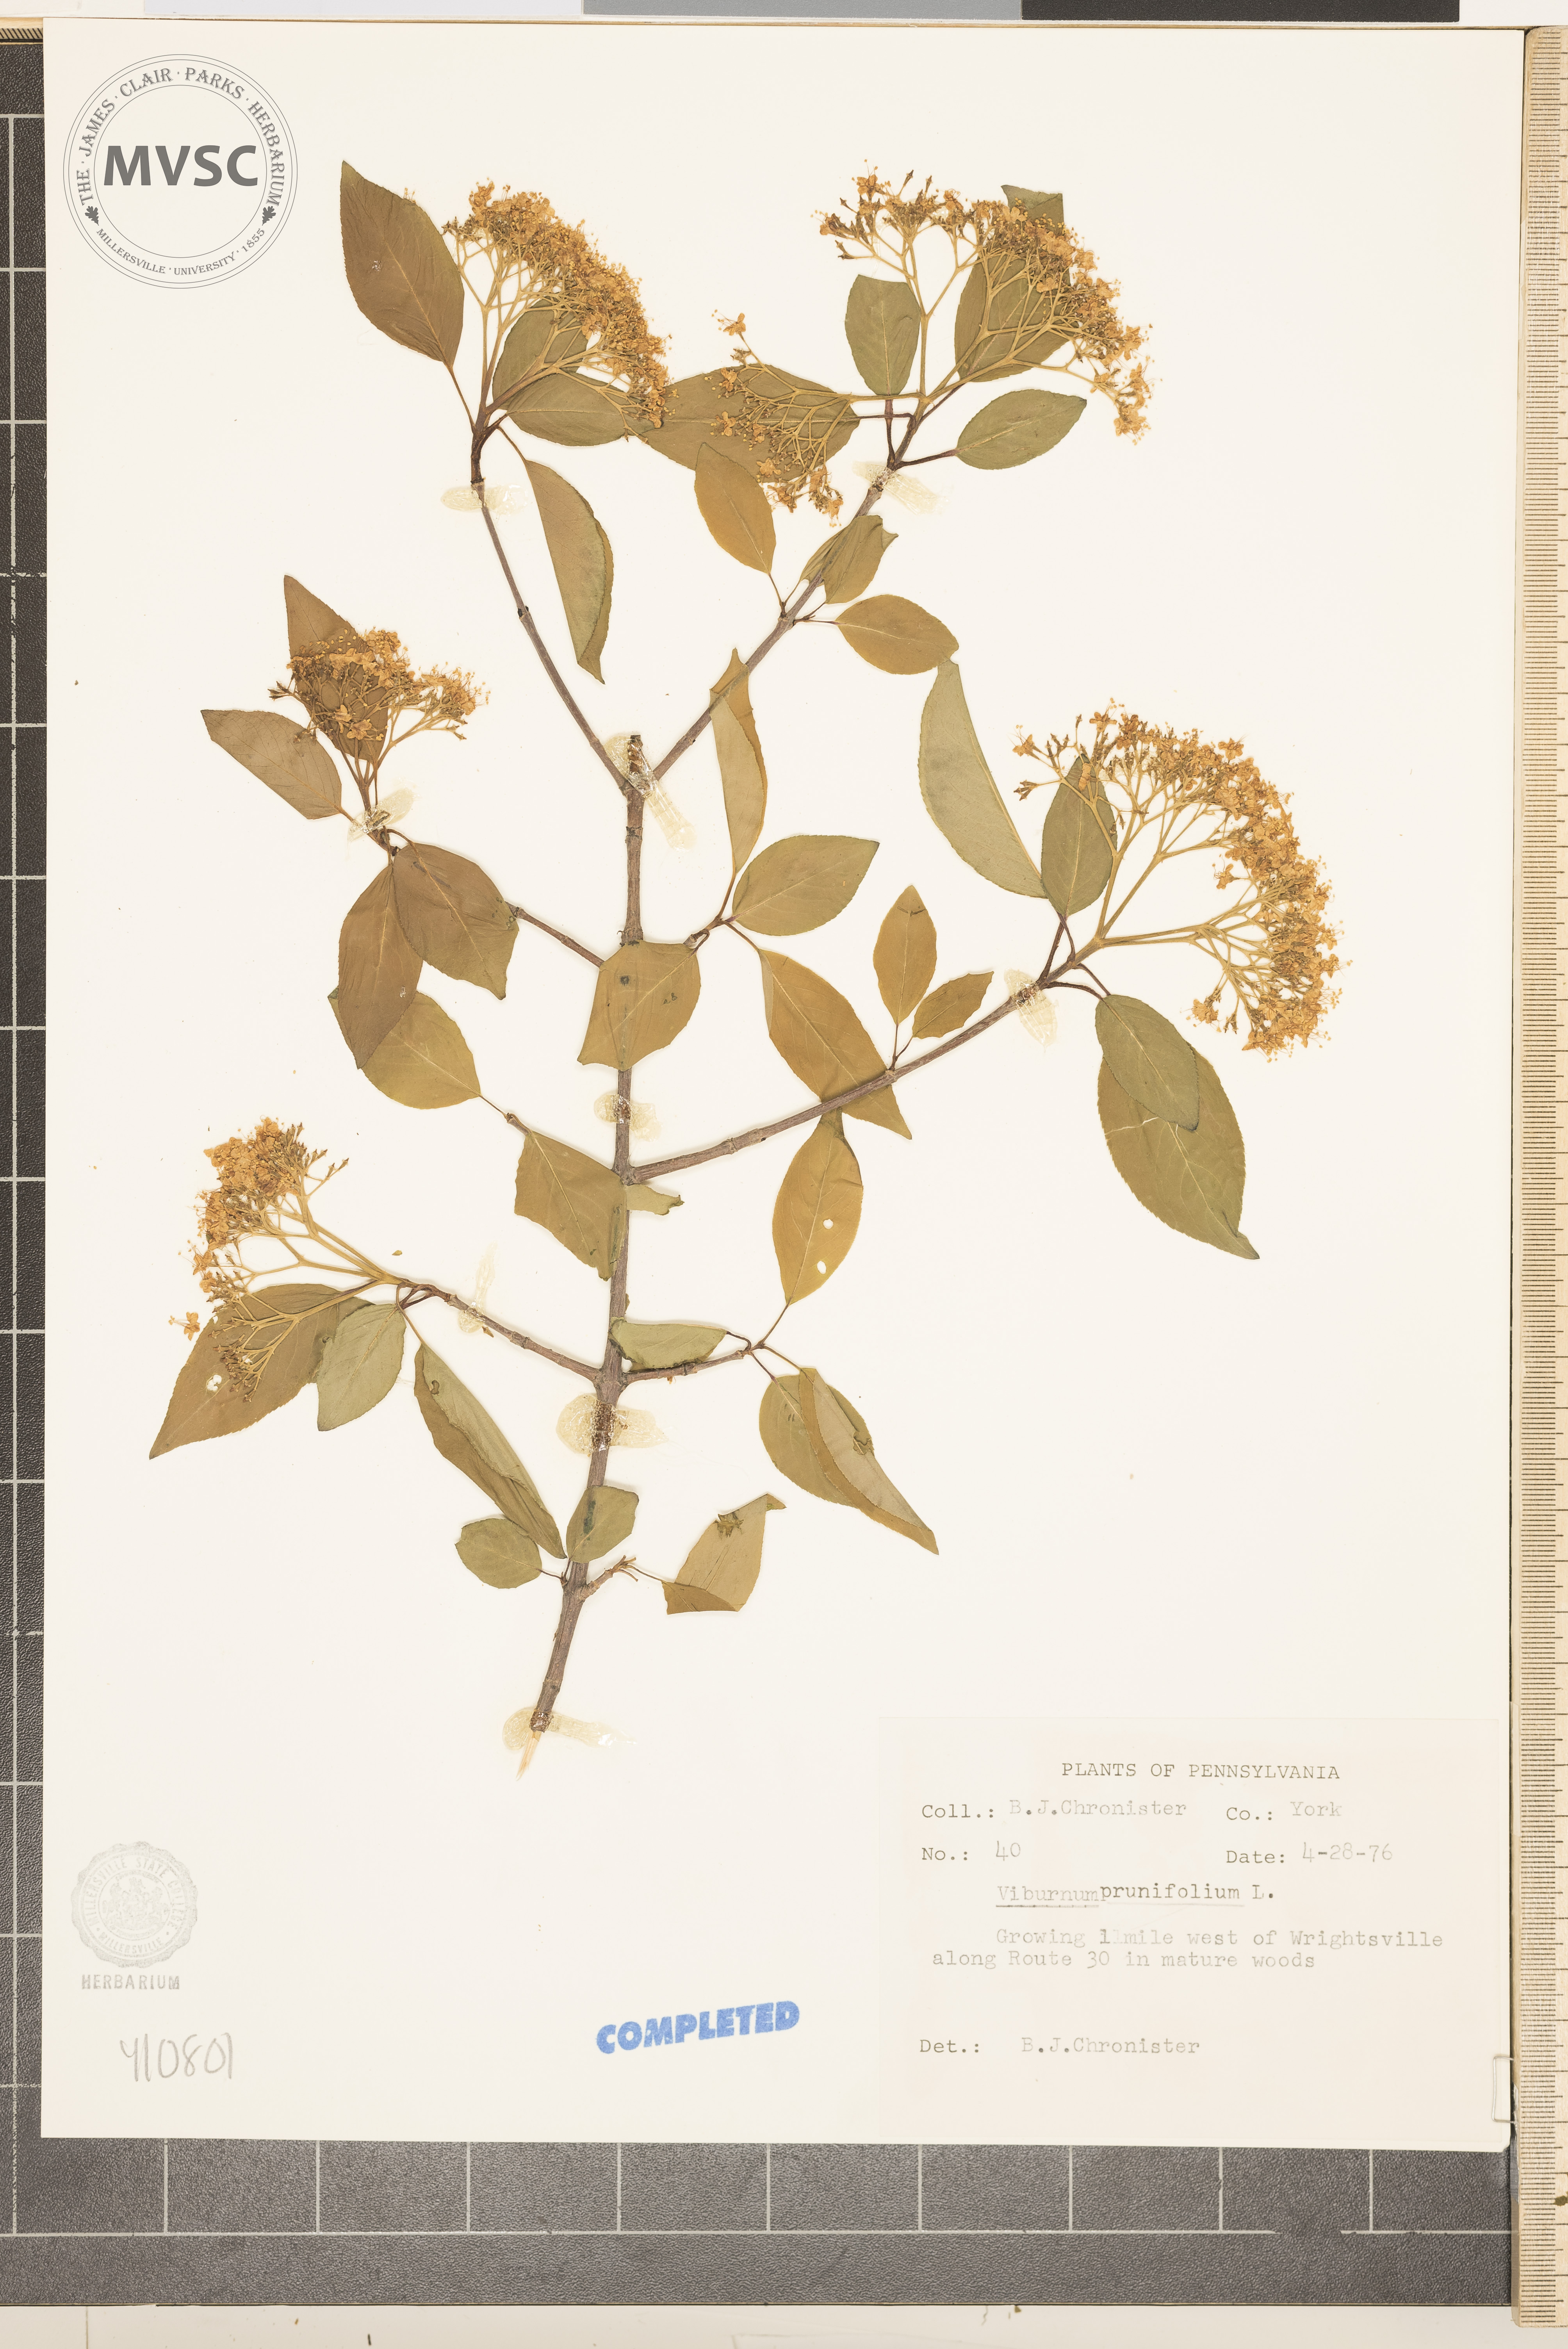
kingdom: Plantae
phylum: Tracheophyta
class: Magnoliopsida
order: Dipsacales
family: Viburnaceae
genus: Viburnum
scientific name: Viburnum cassinoides
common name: Swamp haw
